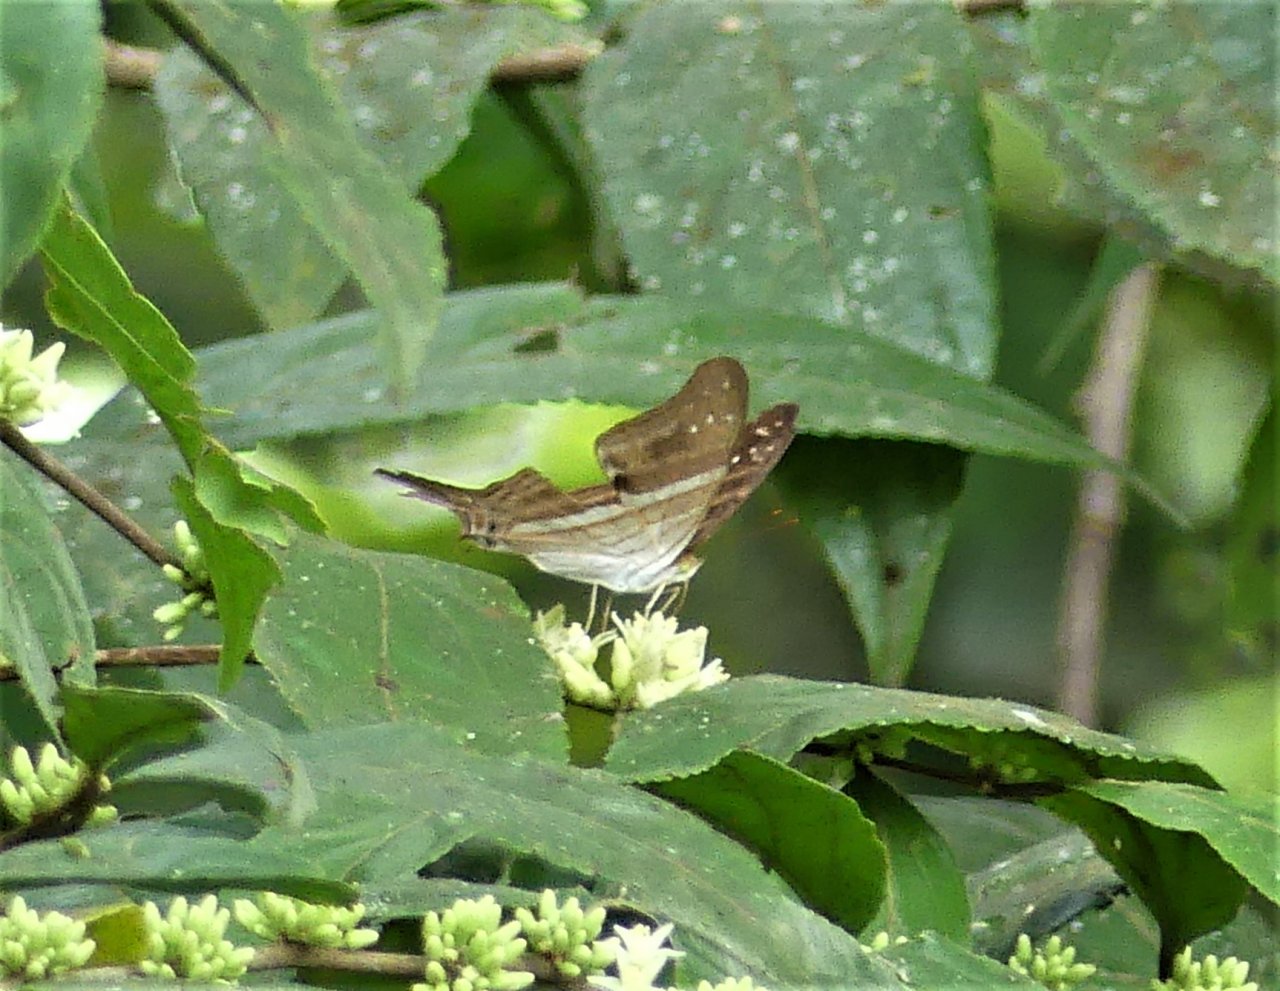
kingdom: Animalia
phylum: Arthropoda
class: Insecta
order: Lepidoptera
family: Nymphalidae
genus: Marpesia
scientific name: Marpesia chiron
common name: Many-banded Daggerwing
